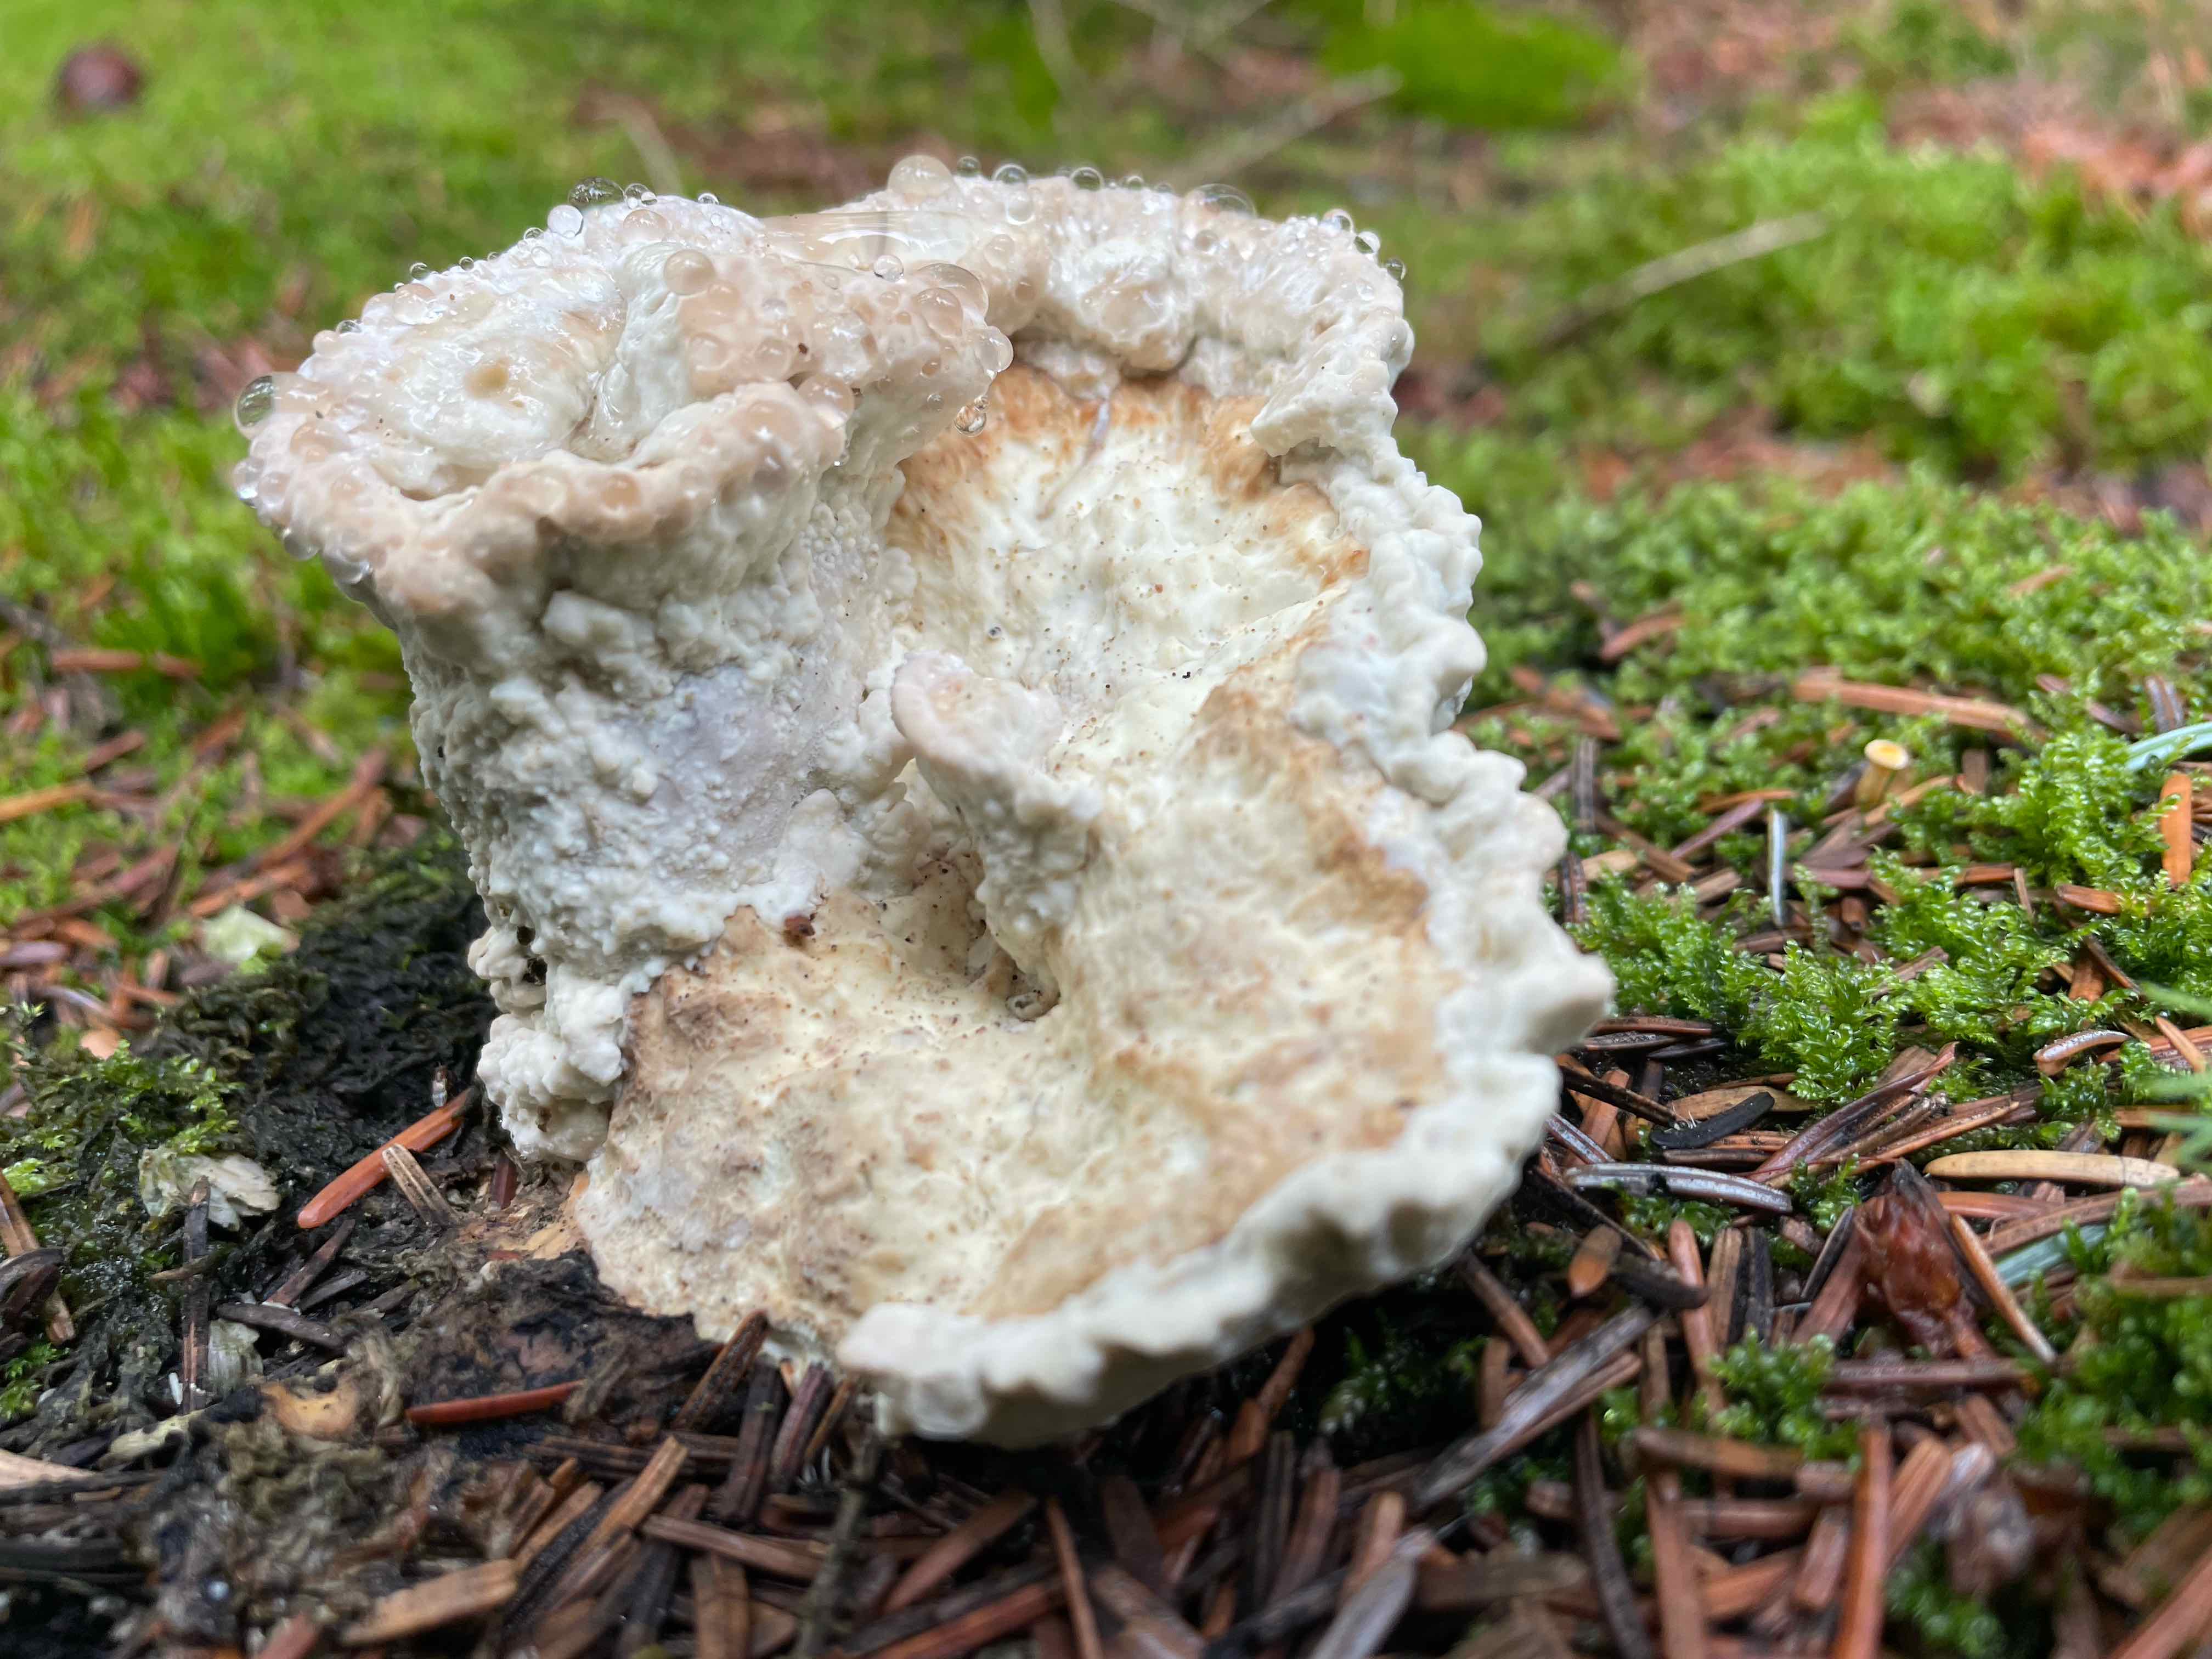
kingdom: Fungi
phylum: Basidiomycota
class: Agaricomycetes
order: Polyporales
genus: Calcipostia
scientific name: Calcipostia guttulata
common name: dråbe-kødporesvamp
